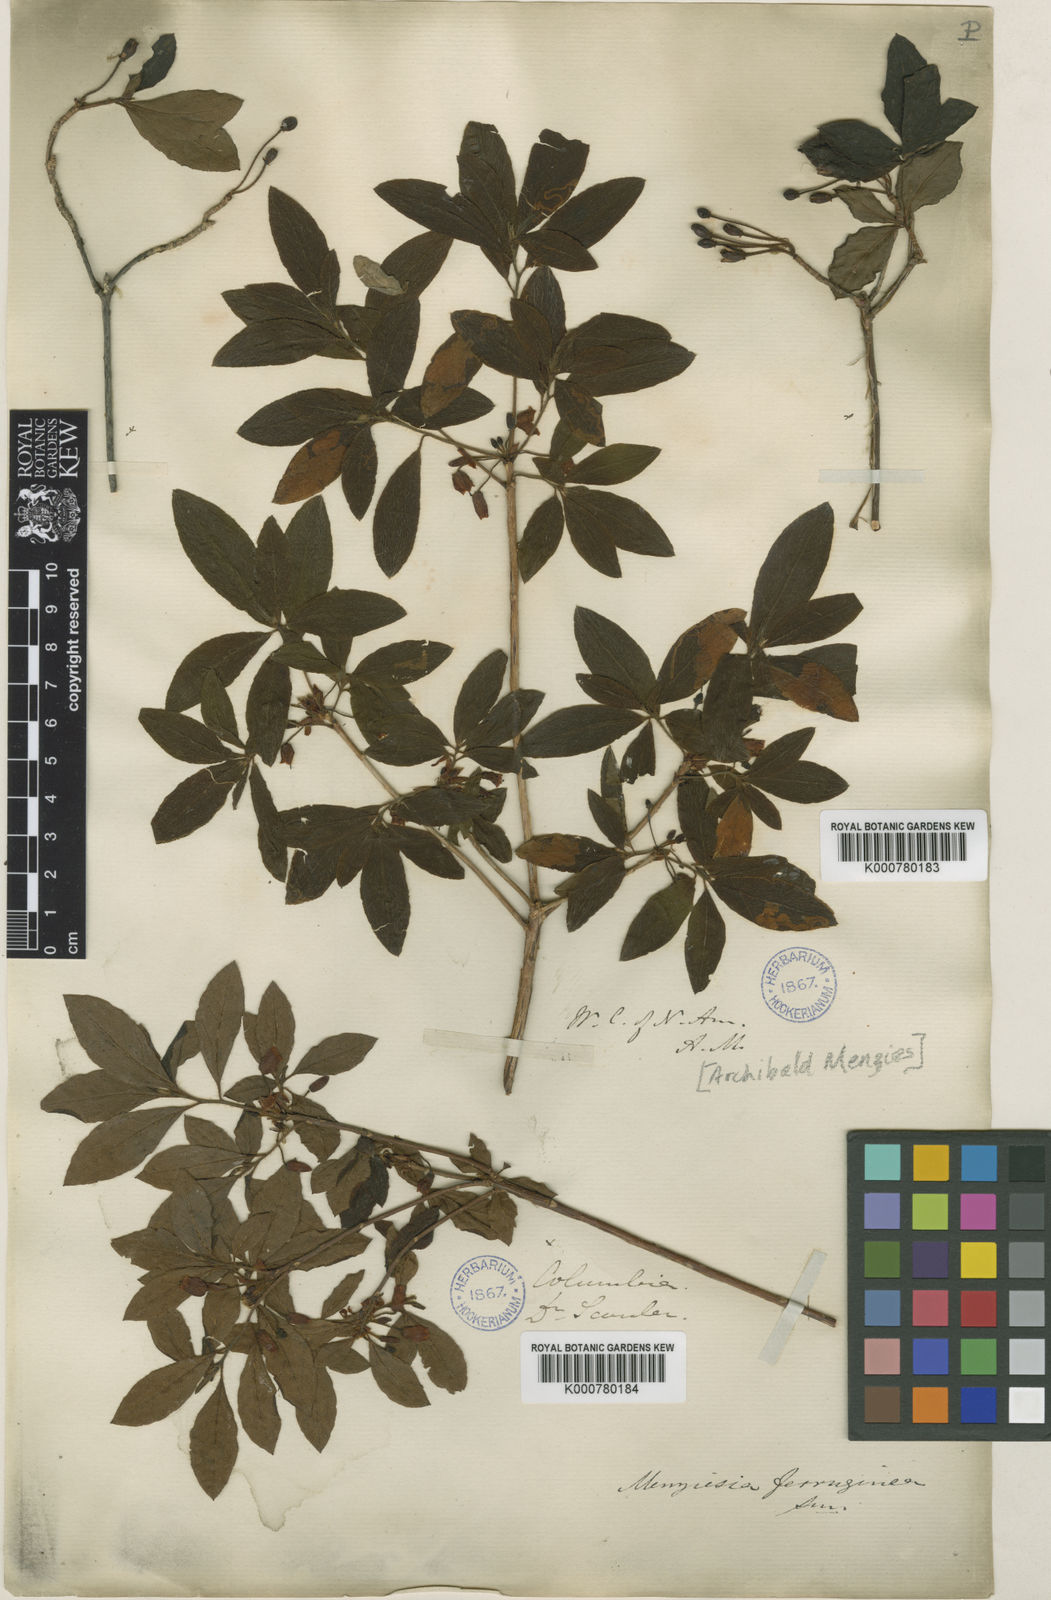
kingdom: Plantae
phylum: Tracheophyta
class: Magnoliopsida
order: Ericales
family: Ericaceae
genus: Rhododendron
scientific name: Rhododendron menziesii
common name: Pacific menziesia
